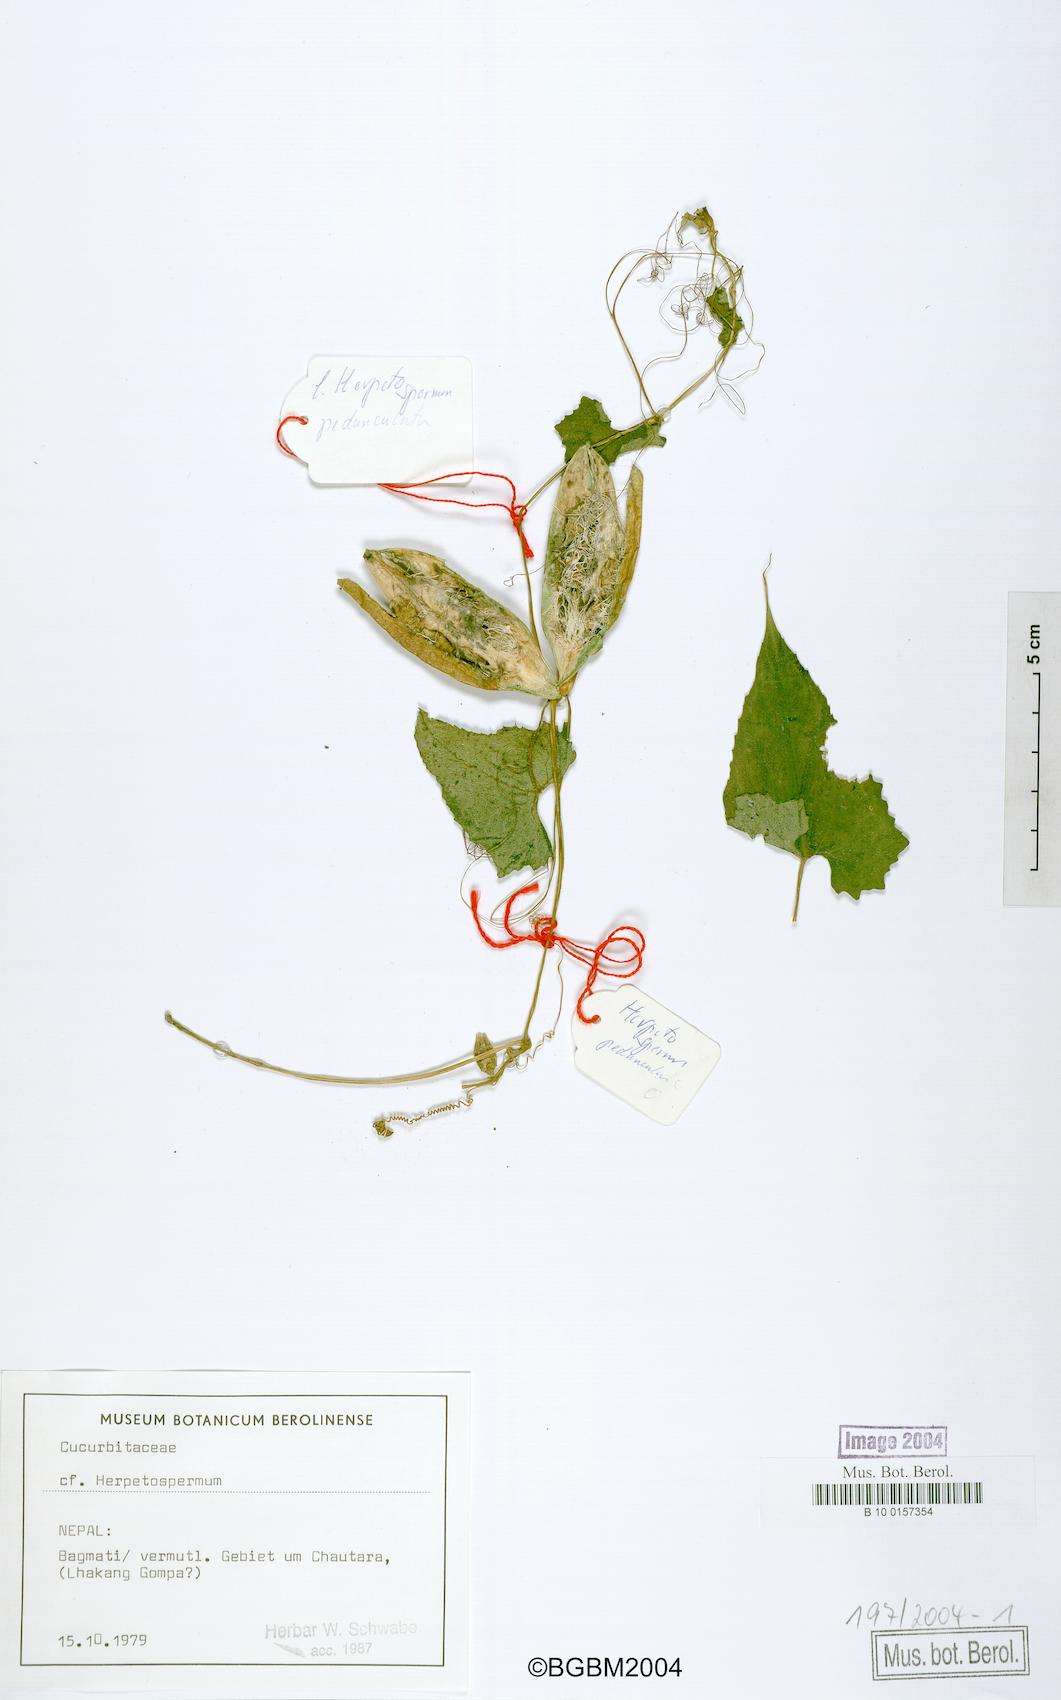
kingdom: Plantae
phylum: Tracheophyta
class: Magnoliopsida
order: Cucurbitales
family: Cucurbitaceae
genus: Herpetospermum
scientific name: Herpetospermum pedunculosum
